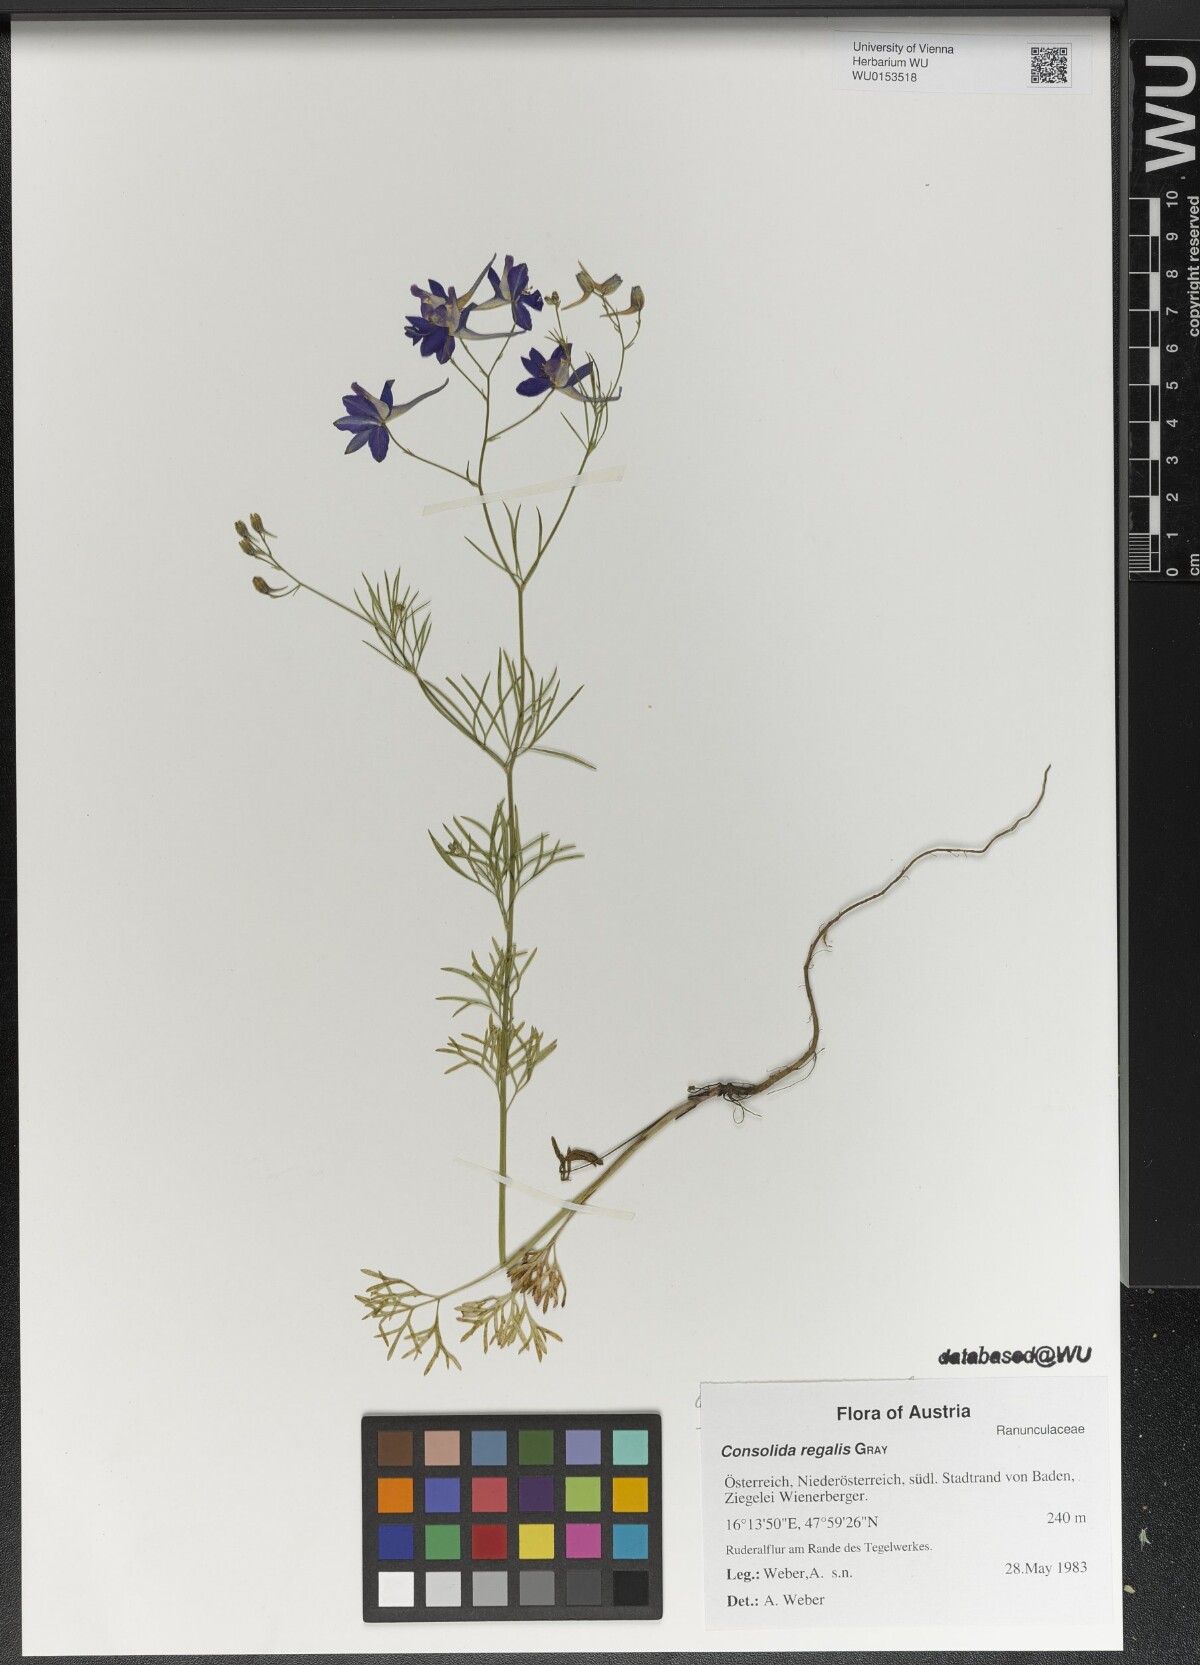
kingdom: Plantae
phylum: Tracheophyta
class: Magnoliopsida
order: Ranunculales
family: Ranunculaceae
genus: Delphinium
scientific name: Delphinium consolida
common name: Branching larkspur
